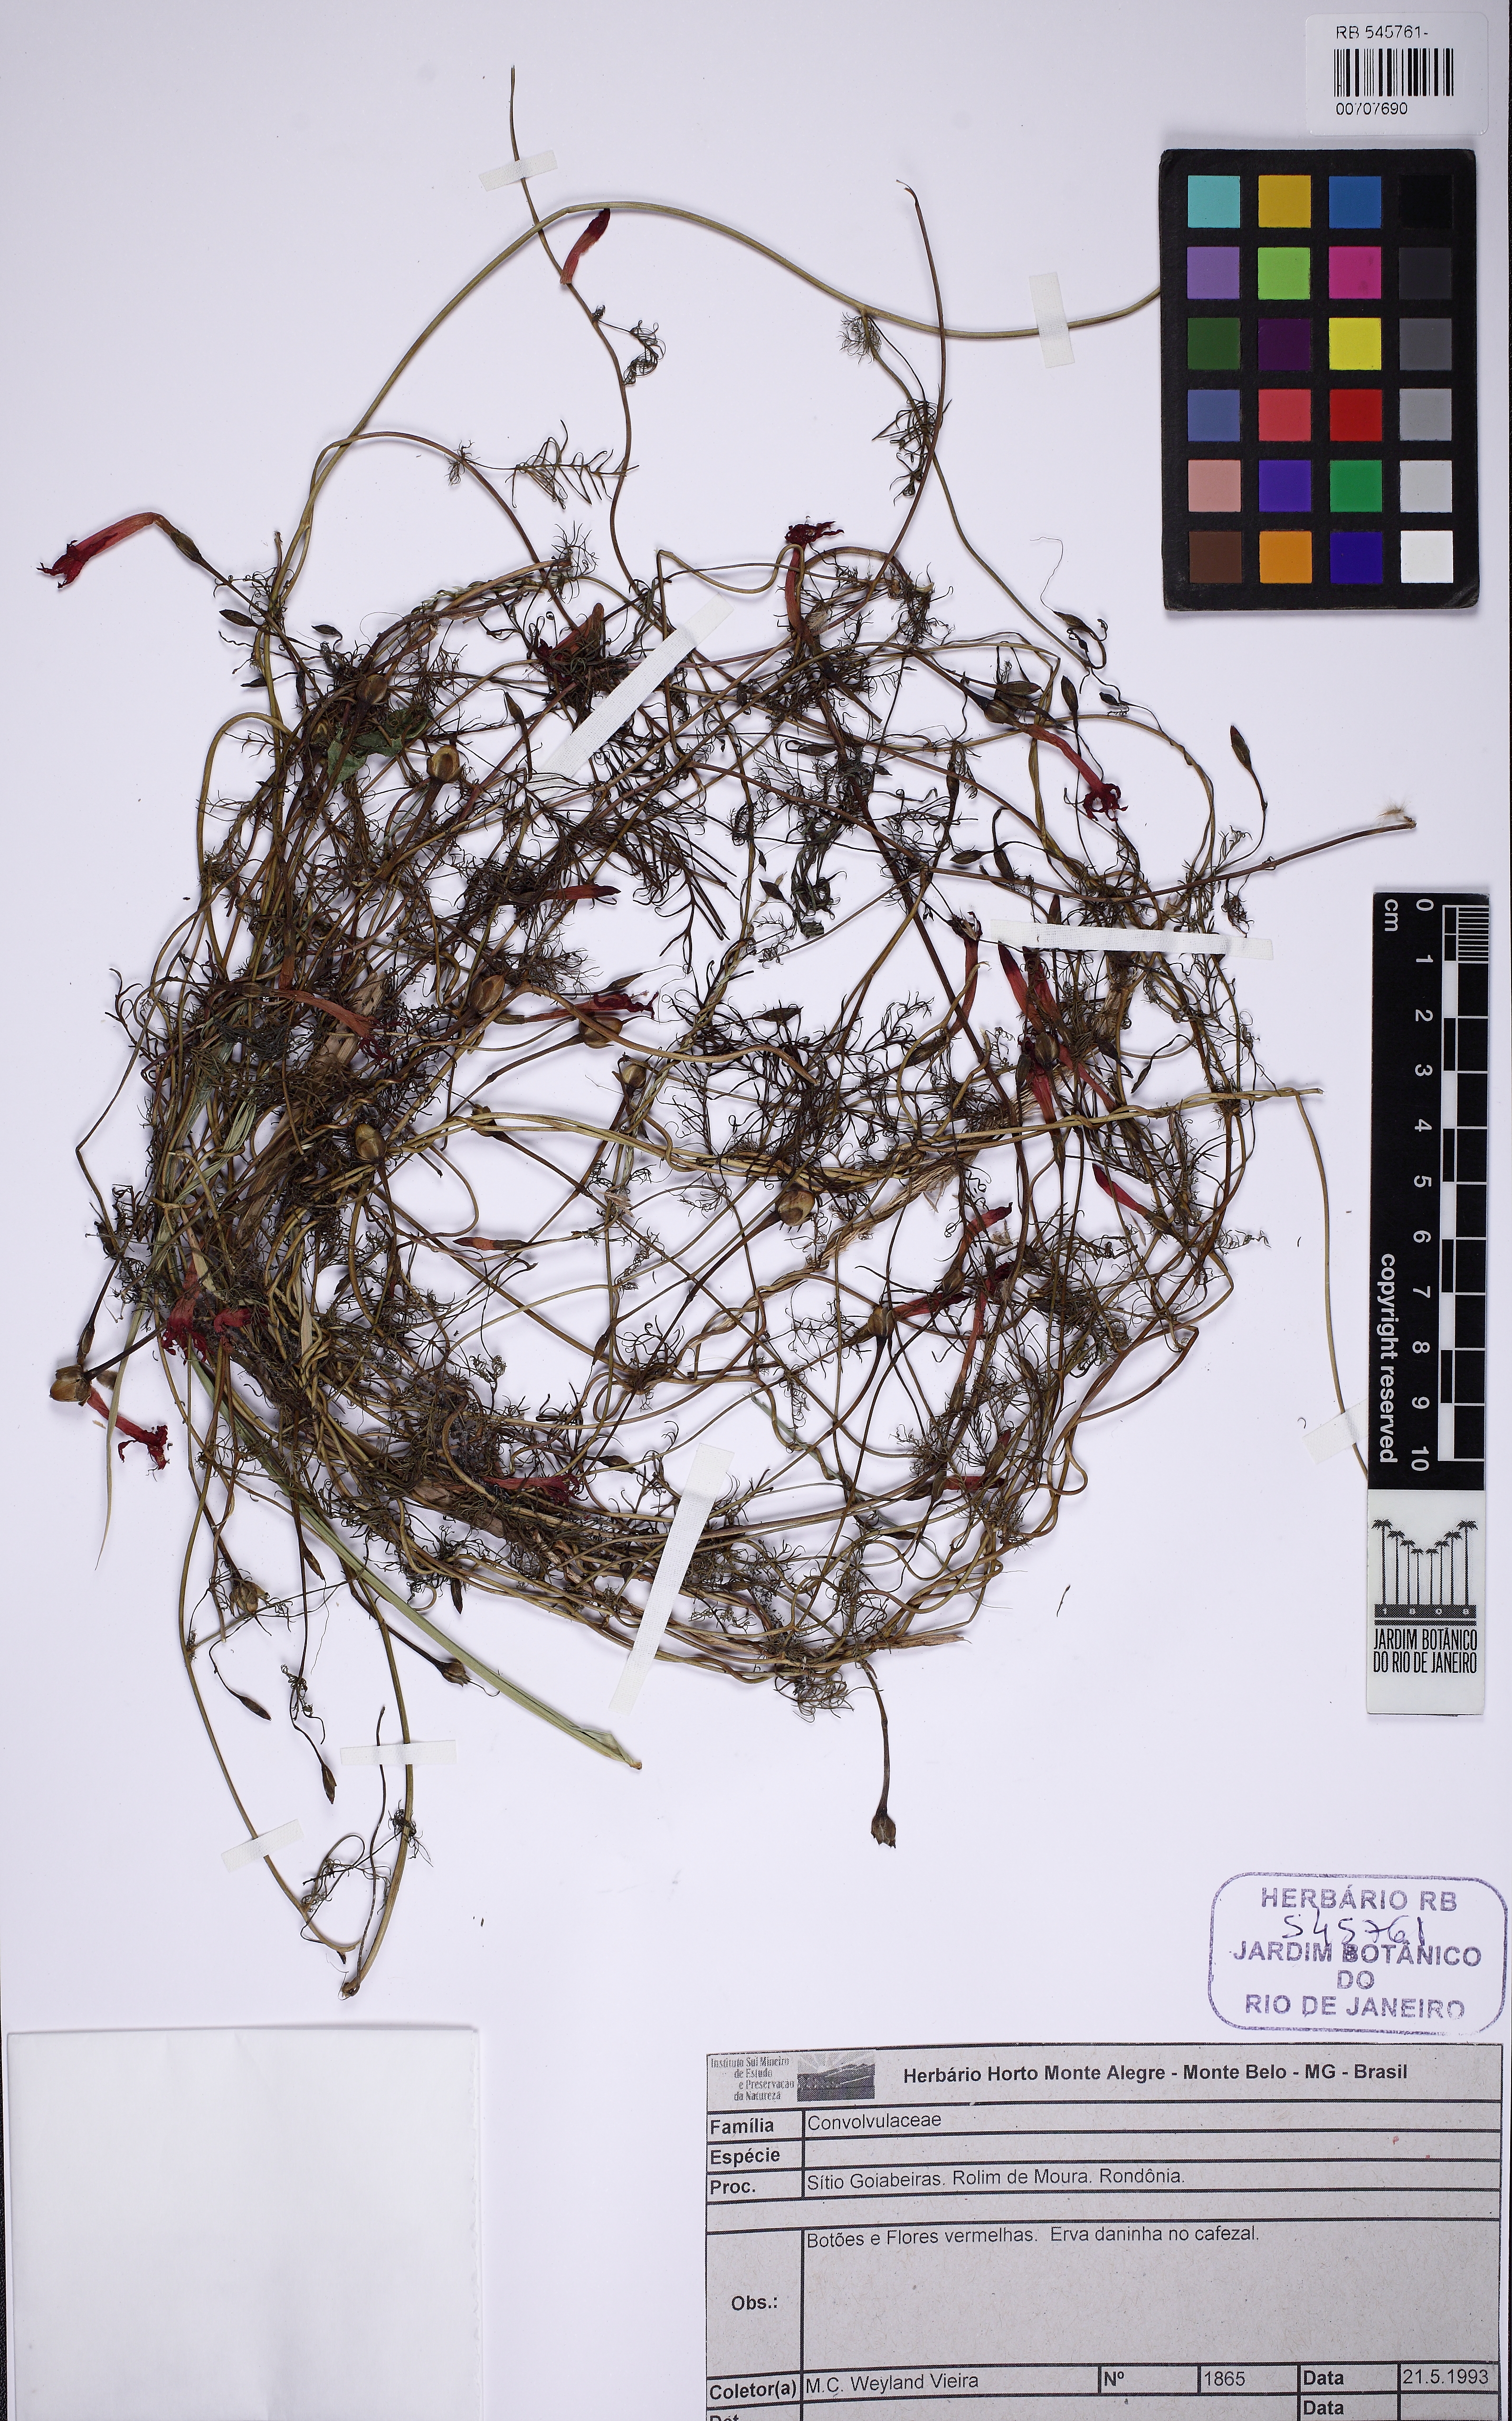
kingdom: Plantae
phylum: Tracheophyta
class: Magnoliopsida
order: Solanales
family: Convolvulaceae
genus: Ipomoea
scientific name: Ipomoea quamoclit
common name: Cypress vine
